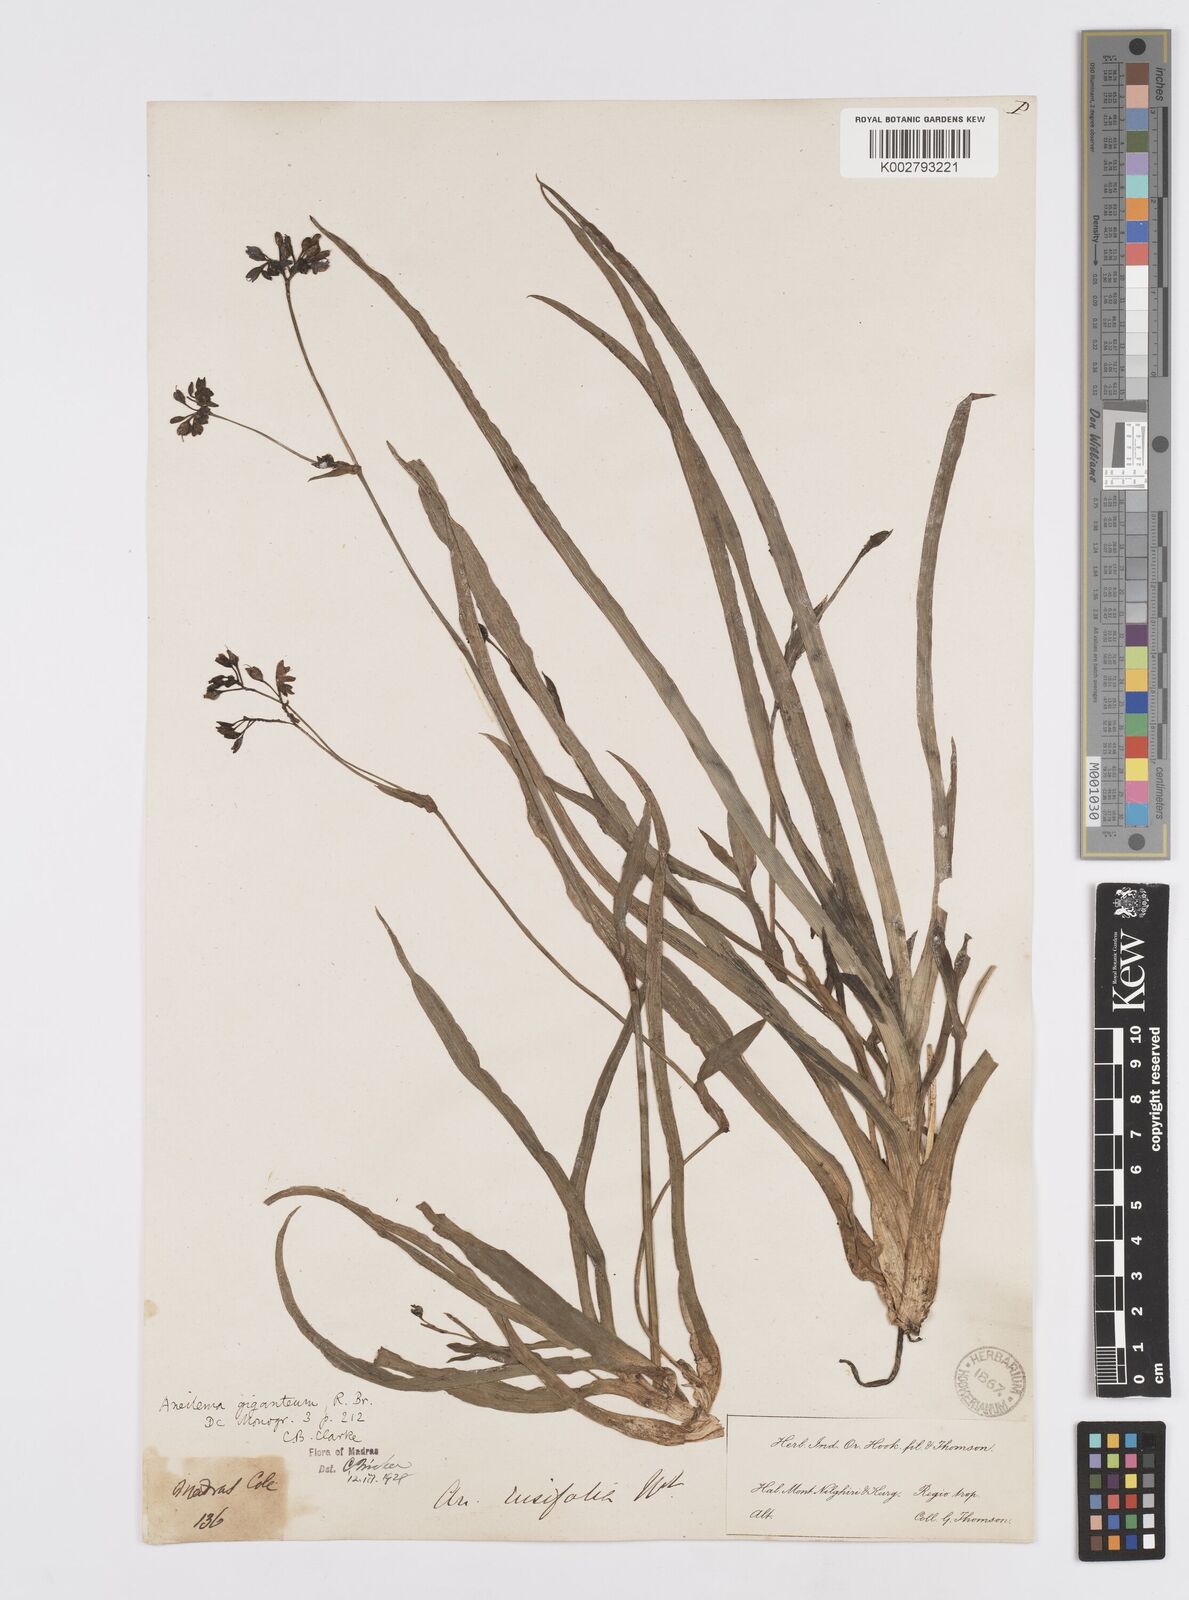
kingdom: Plantae
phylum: Tracheophyta
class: Liliopsida
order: Commelinales
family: Commelinaceae
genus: Murdannia
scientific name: Murdannia simplex
